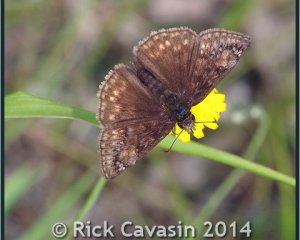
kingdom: Animalia
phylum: Arthropoda
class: Insecta
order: Lepidoptera
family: Hesperiidae
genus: Gesta
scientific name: Gesta
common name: Juvenal's Duskywing
